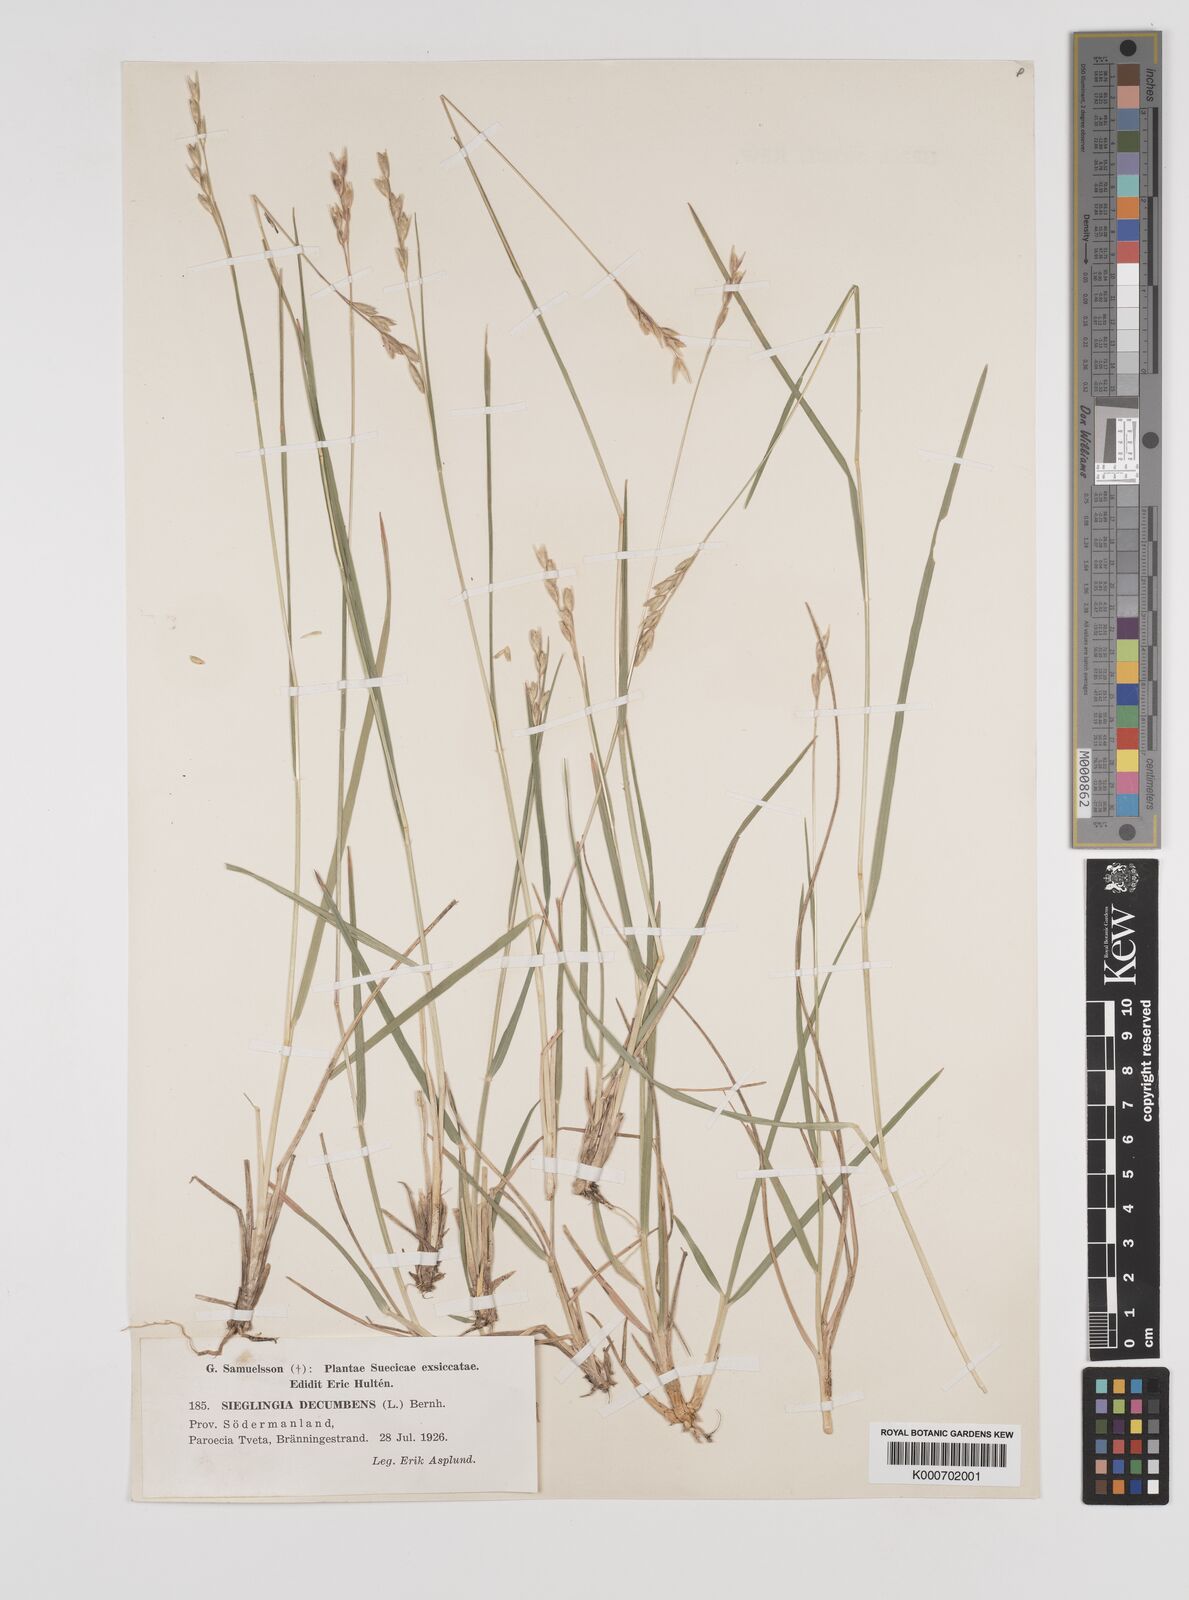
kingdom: Plantae
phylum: Tracheophyta
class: Liliopsida
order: Poales
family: Poaceae
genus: Danthonia
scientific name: Danthonia decumbens
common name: Common heathgrass
